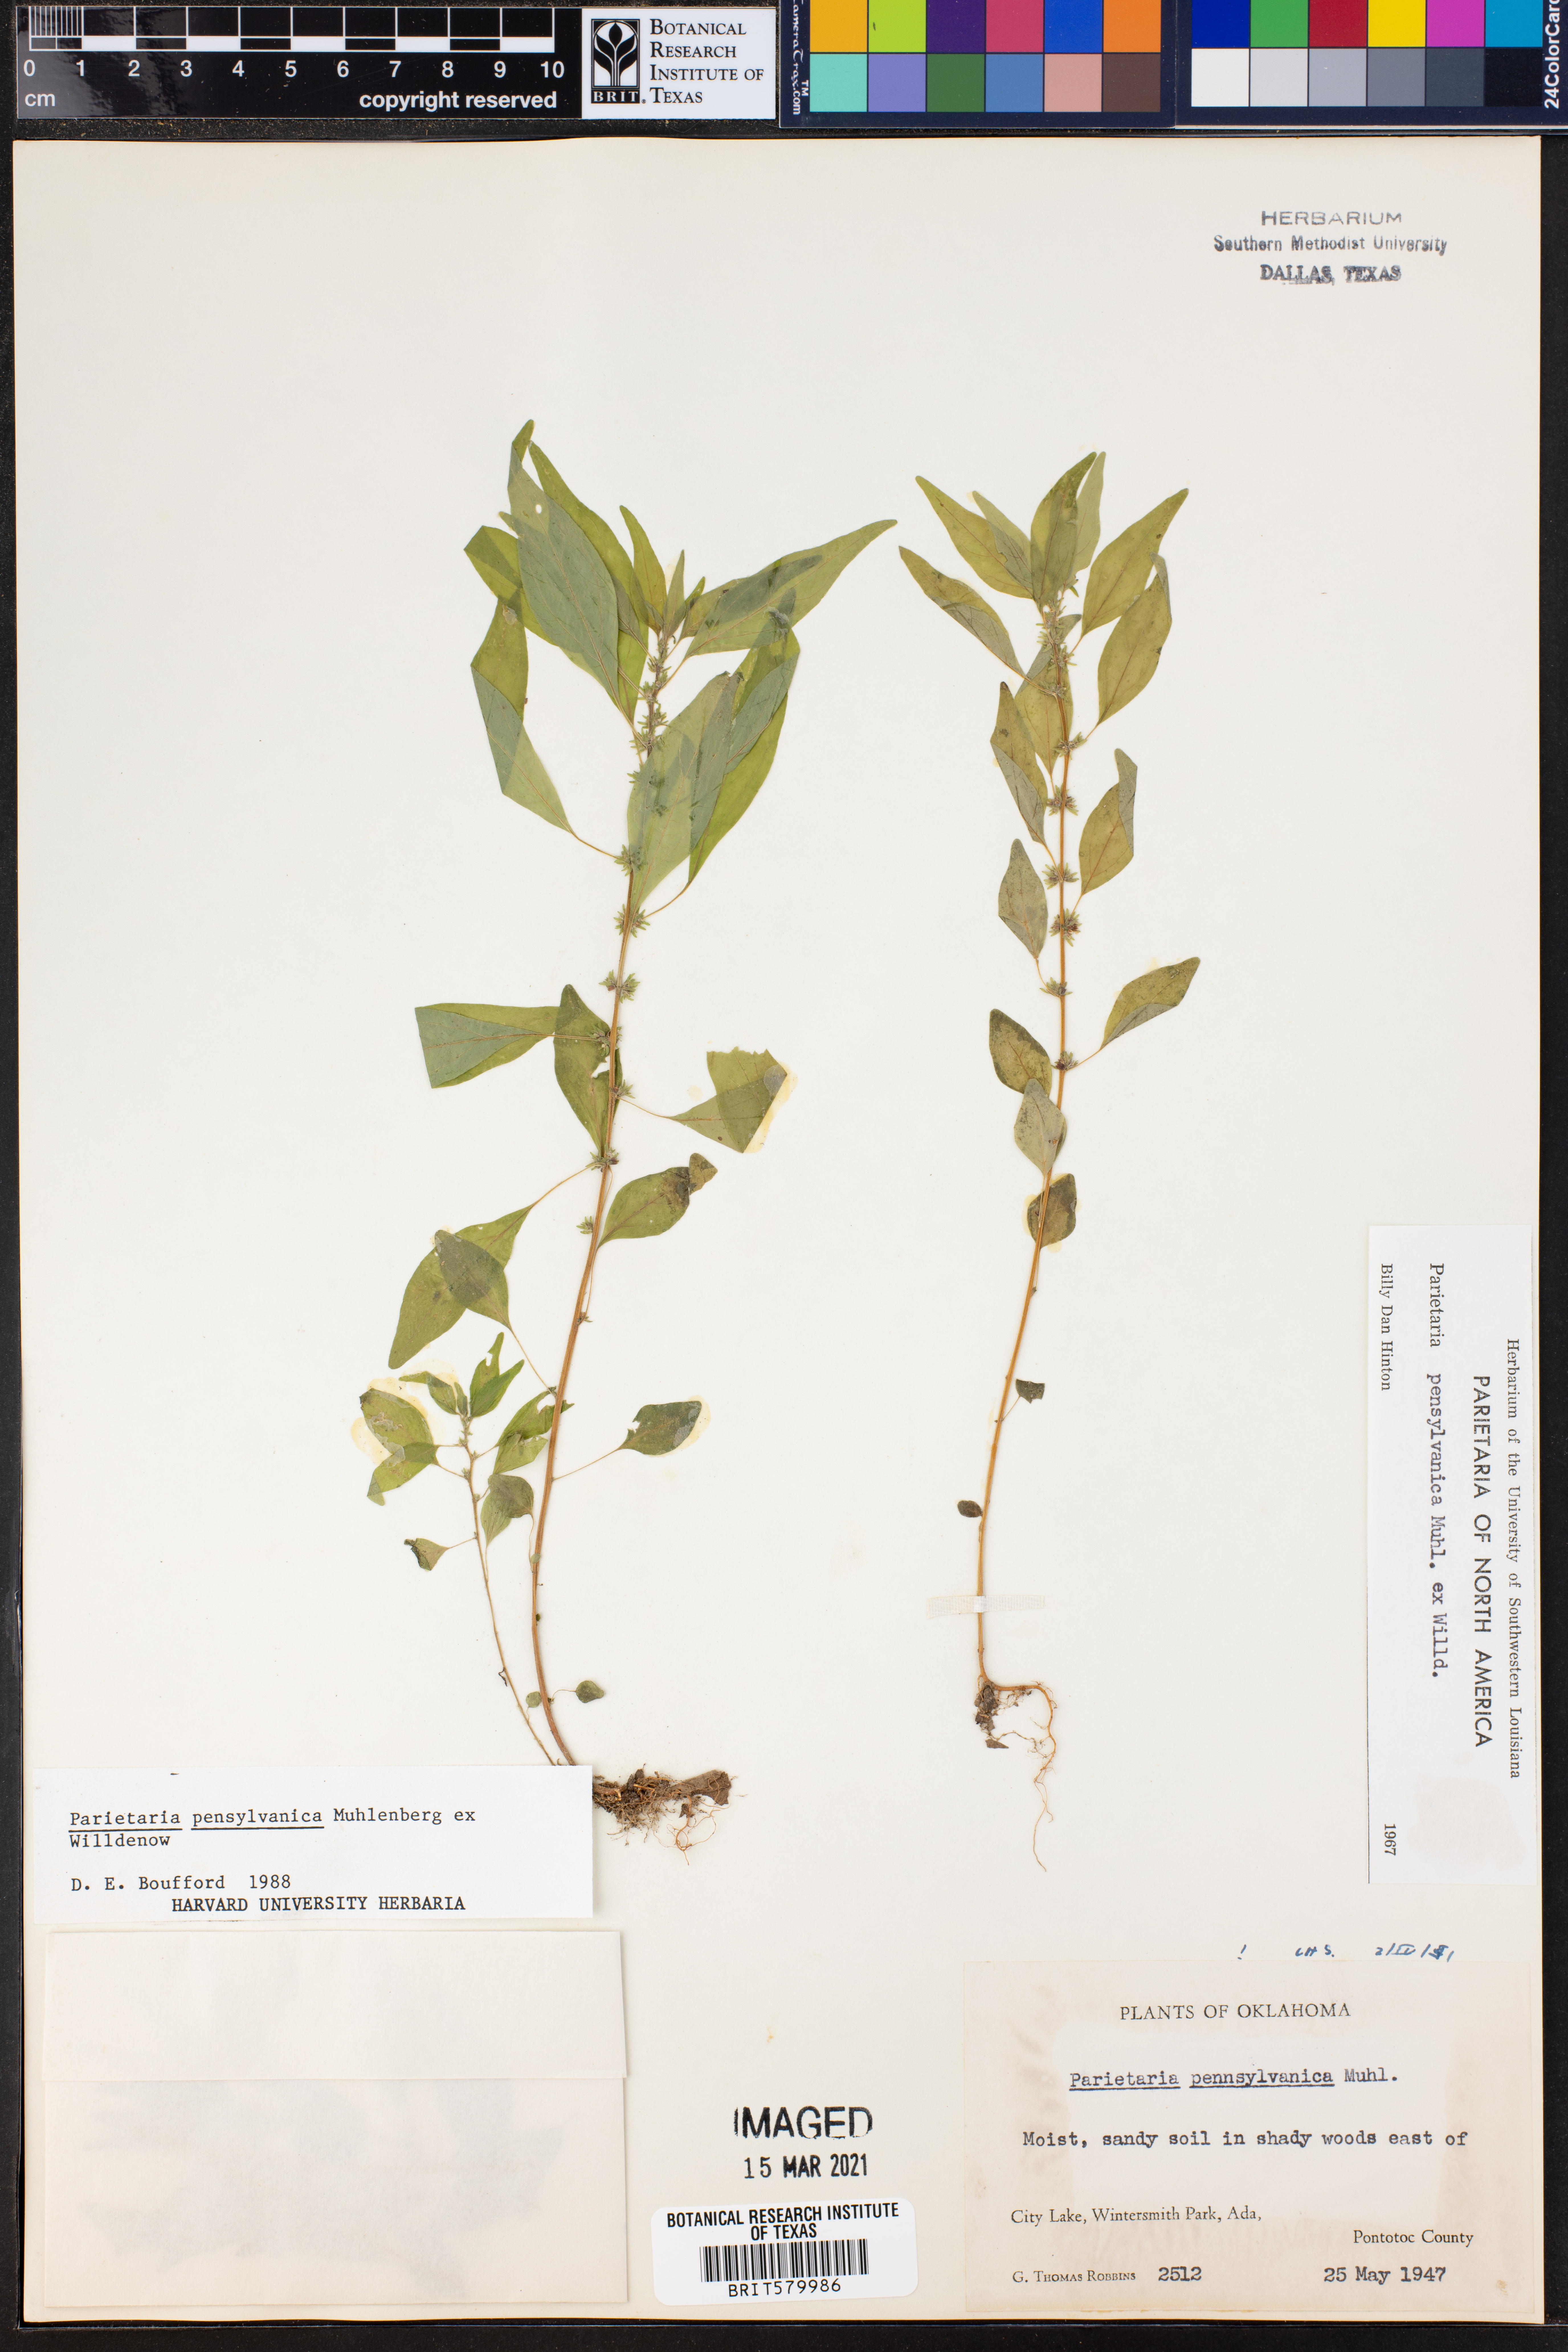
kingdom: Plantae
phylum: Tracheophyta
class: Magnoliopsida
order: Rosales
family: Urticaceae
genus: Parietaria
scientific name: Parietaria pensylvanica
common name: Pennsylvania pellitory
